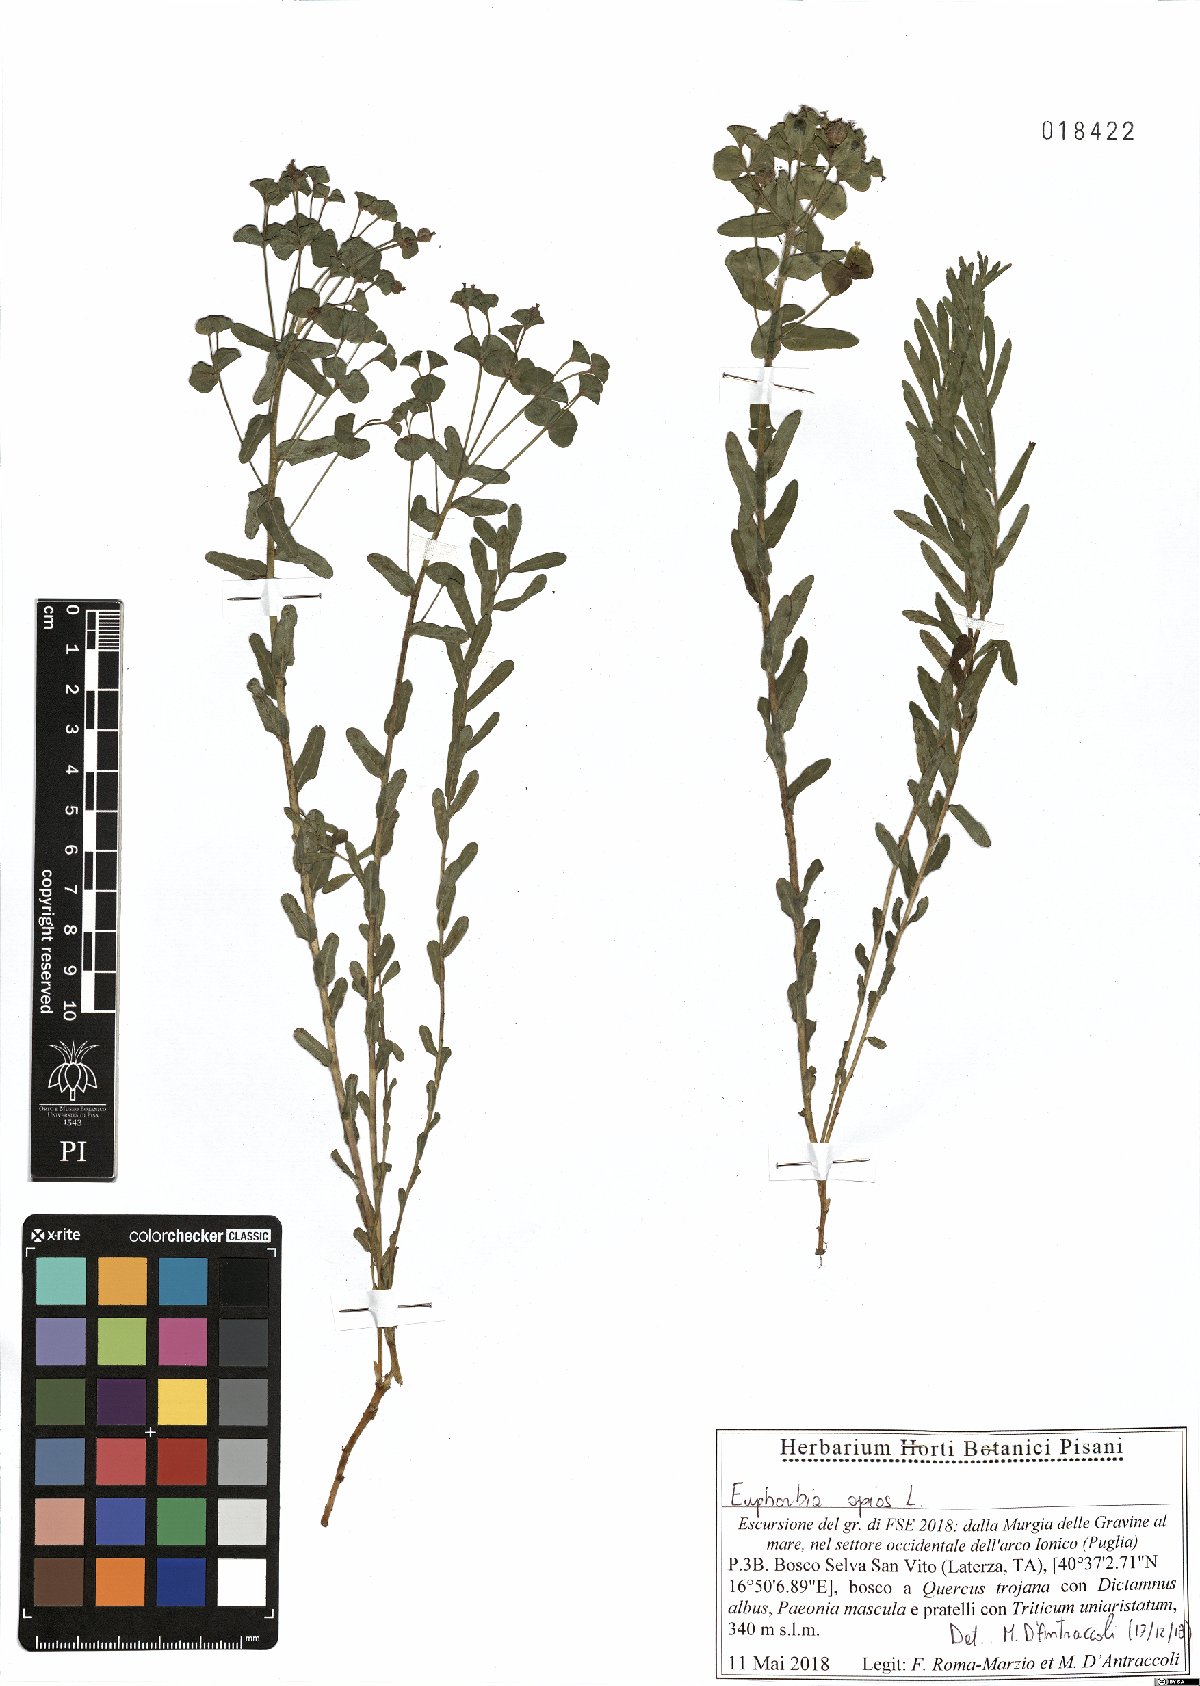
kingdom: Plantae
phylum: Tracheophyta
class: Magnoliopsida
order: Malpighiales
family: Euphorbiaceae
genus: Euphorbia
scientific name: Euphorbia apios
